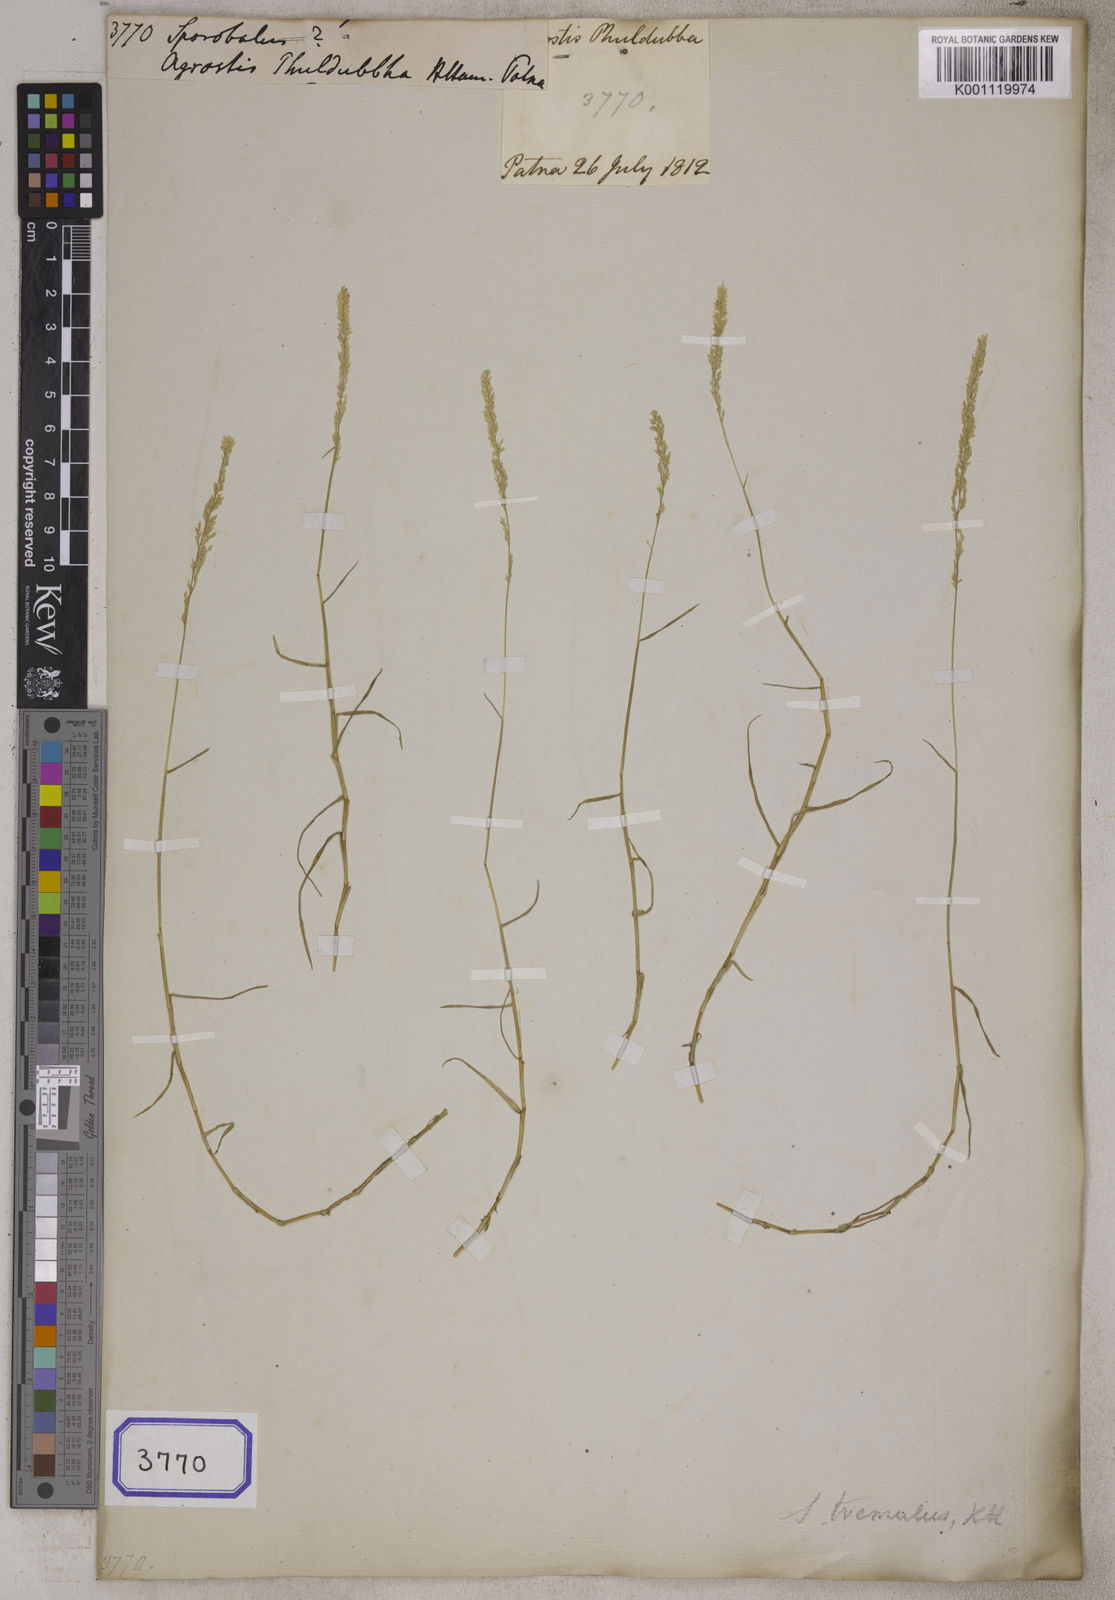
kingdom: Plantae
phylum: Tracheophyta
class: Liliopsida
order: Poales
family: Poaceae
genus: Sporobolus
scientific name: Sporobolus
